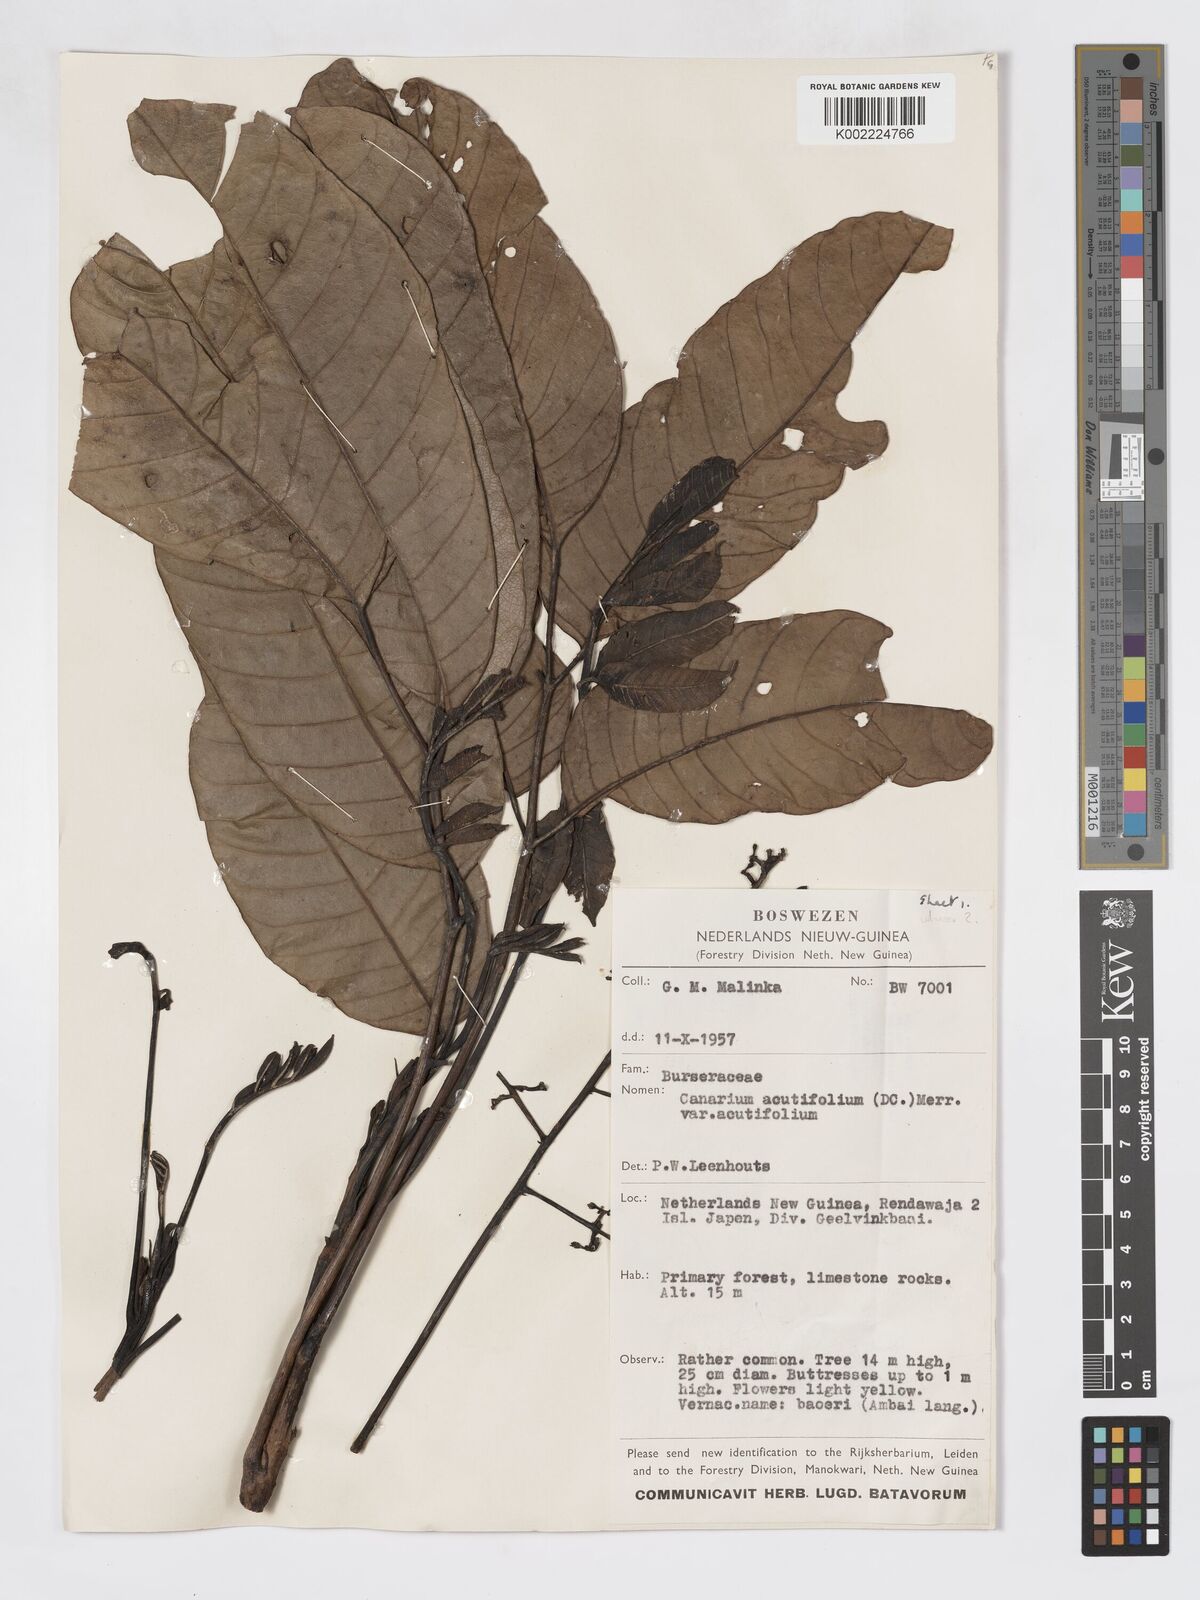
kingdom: Plantae
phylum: Tracheophyta
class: Magnoliopsida
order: Sapindales
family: Burseraceae
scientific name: Burseraceae
